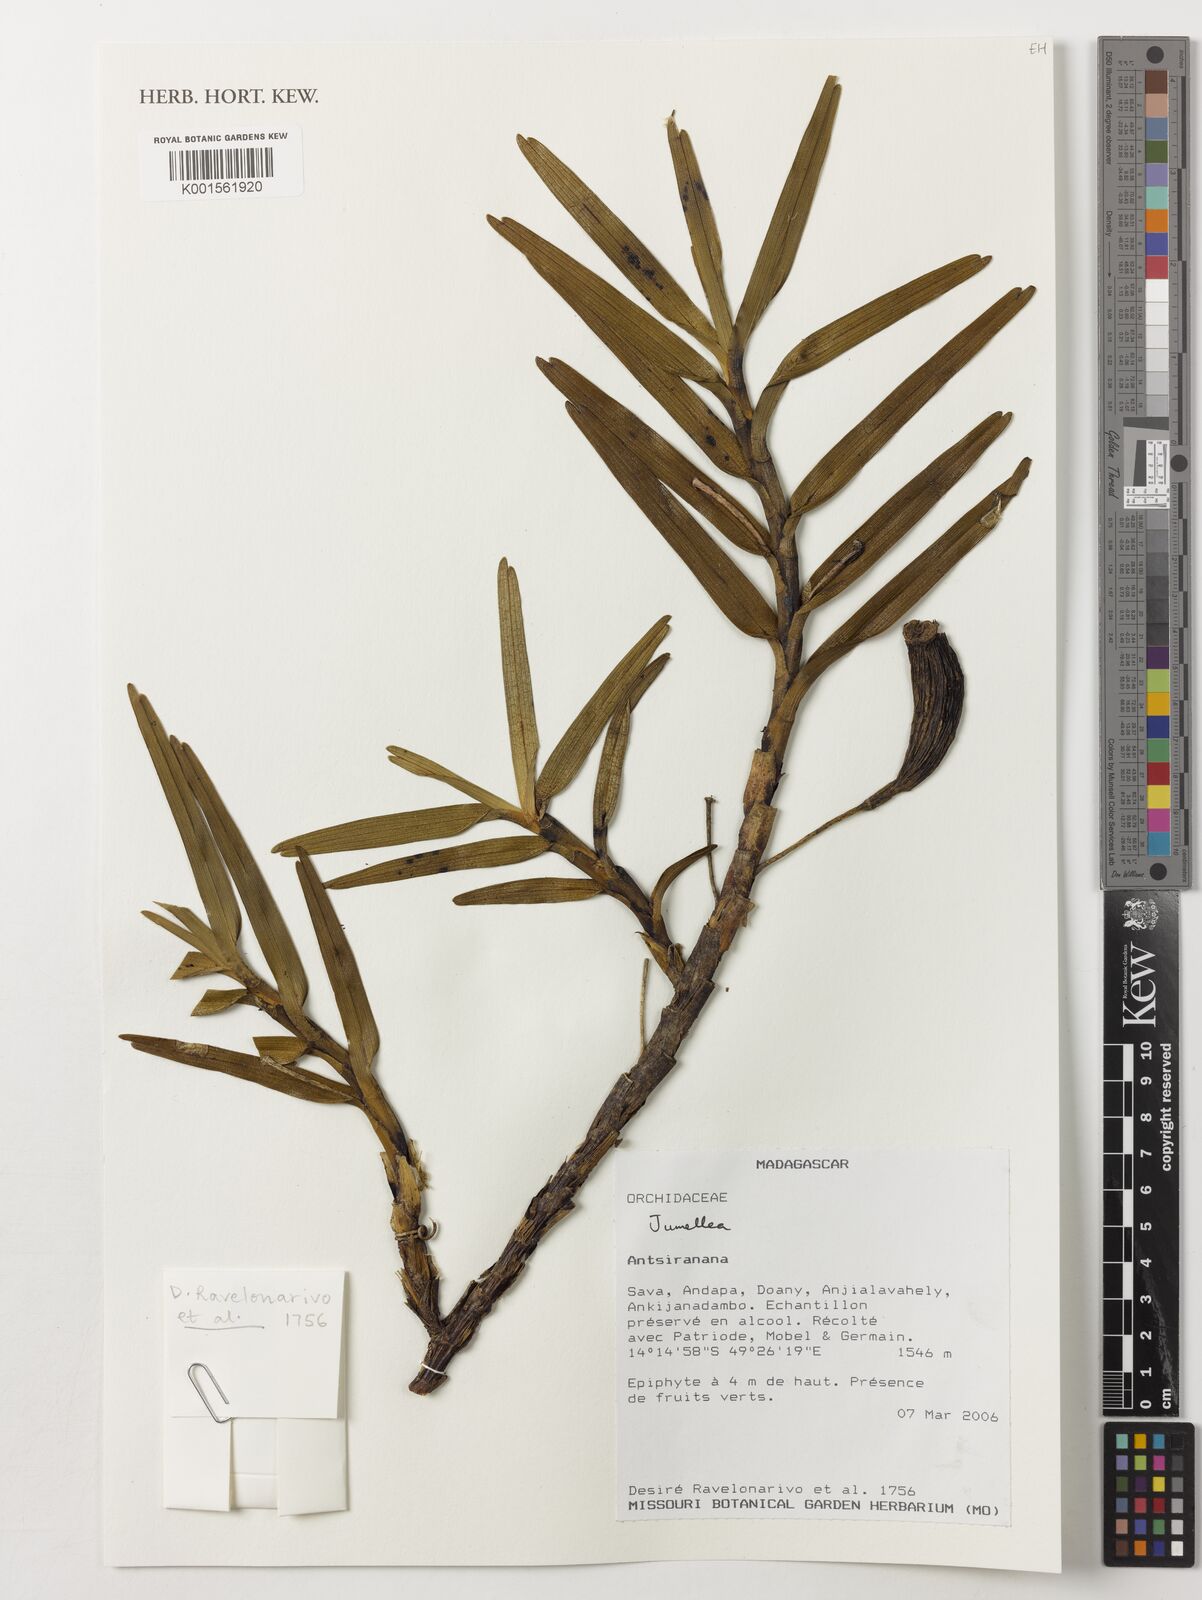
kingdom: Plantae
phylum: Tracheophyta
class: Liliopsida
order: Asparagales
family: Orchidaceae
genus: Jumellea
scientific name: Jumellea
